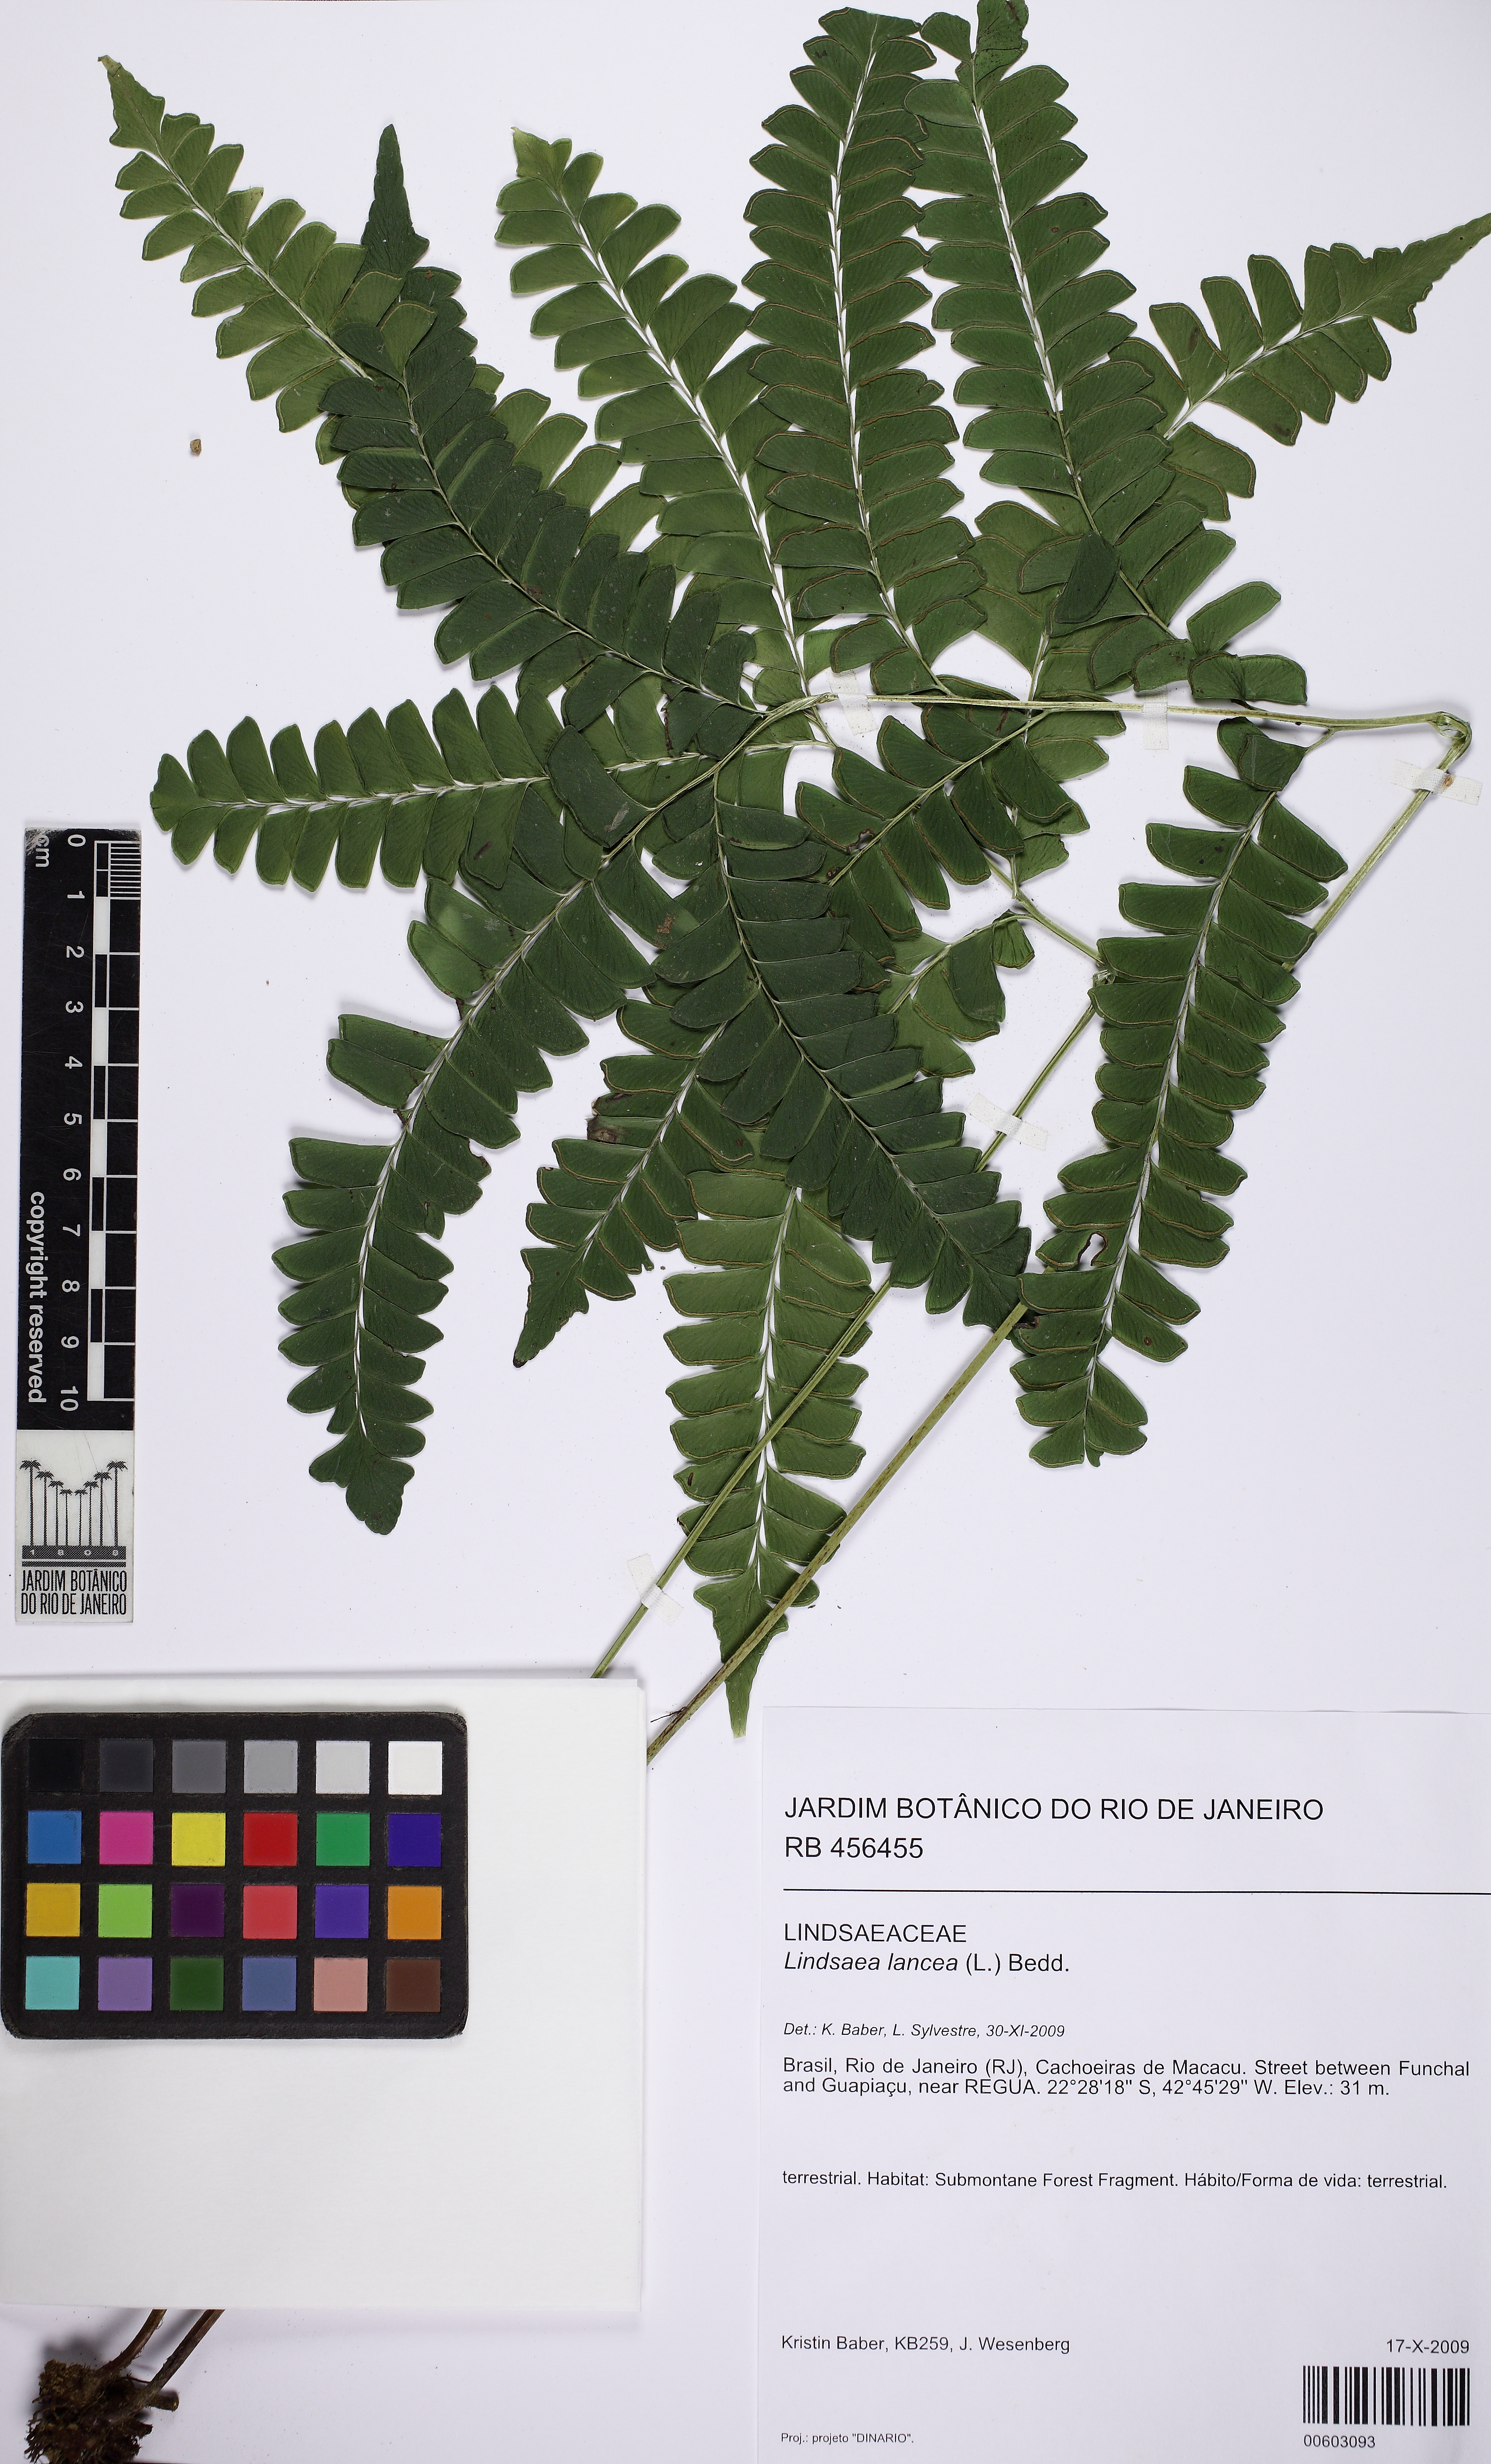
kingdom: Plantae
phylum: Tracheophyta
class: Polypodiopsida
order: Polypodiales
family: Lindsaeaceae
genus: Lindsaea
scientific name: Lindsaea lancea
